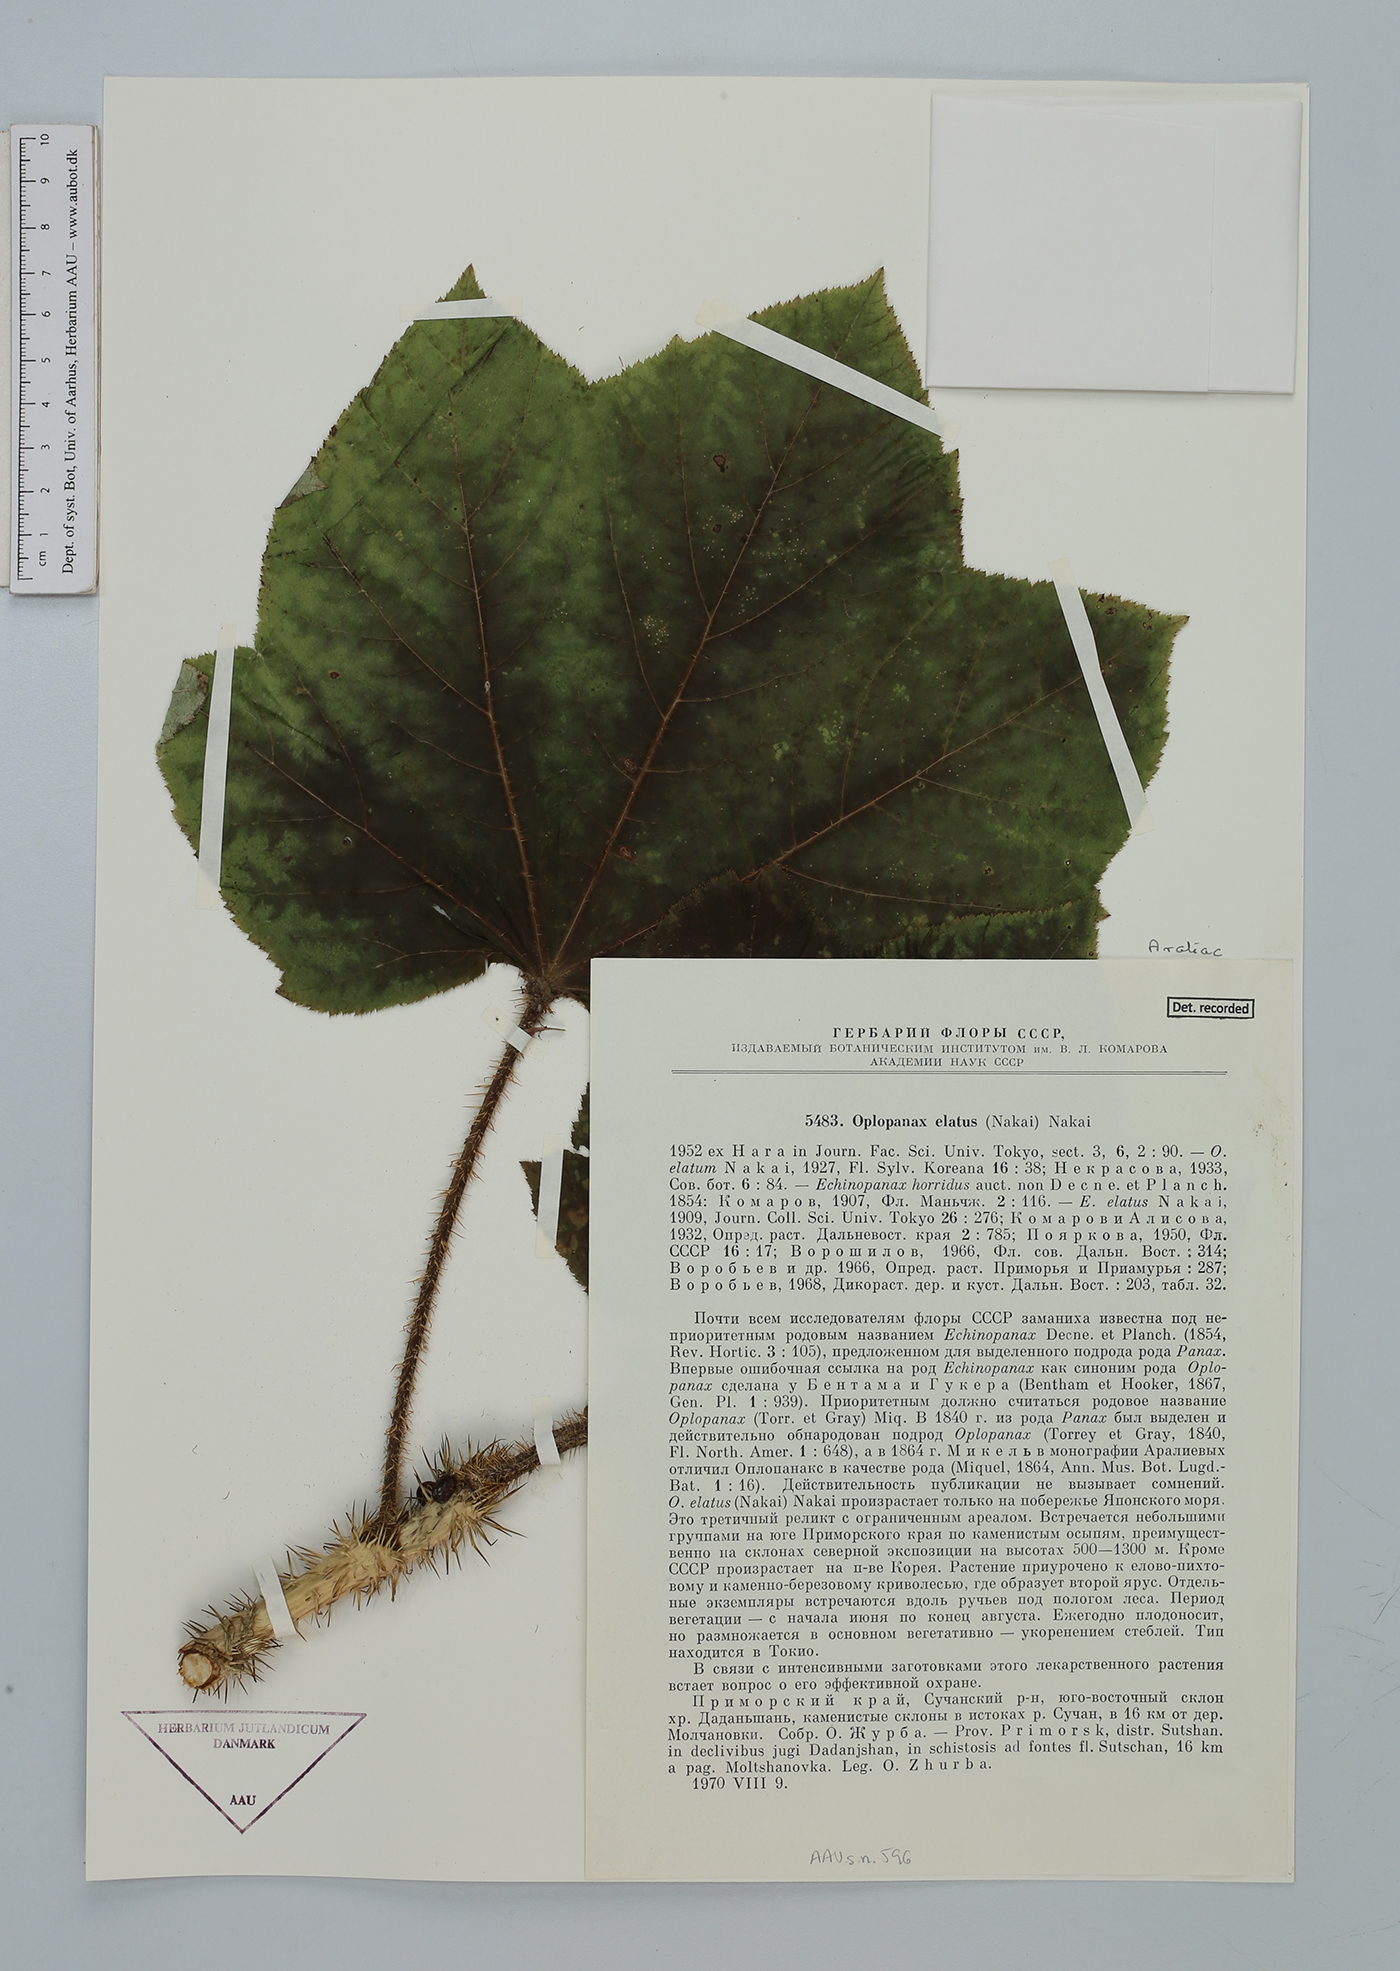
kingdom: Plantae
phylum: Tracheophyta
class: Magnoliopsida
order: Apiales
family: Araliaceae
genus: Oplopanax
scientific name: Oplopanax elatus
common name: Japanese devil's-club
